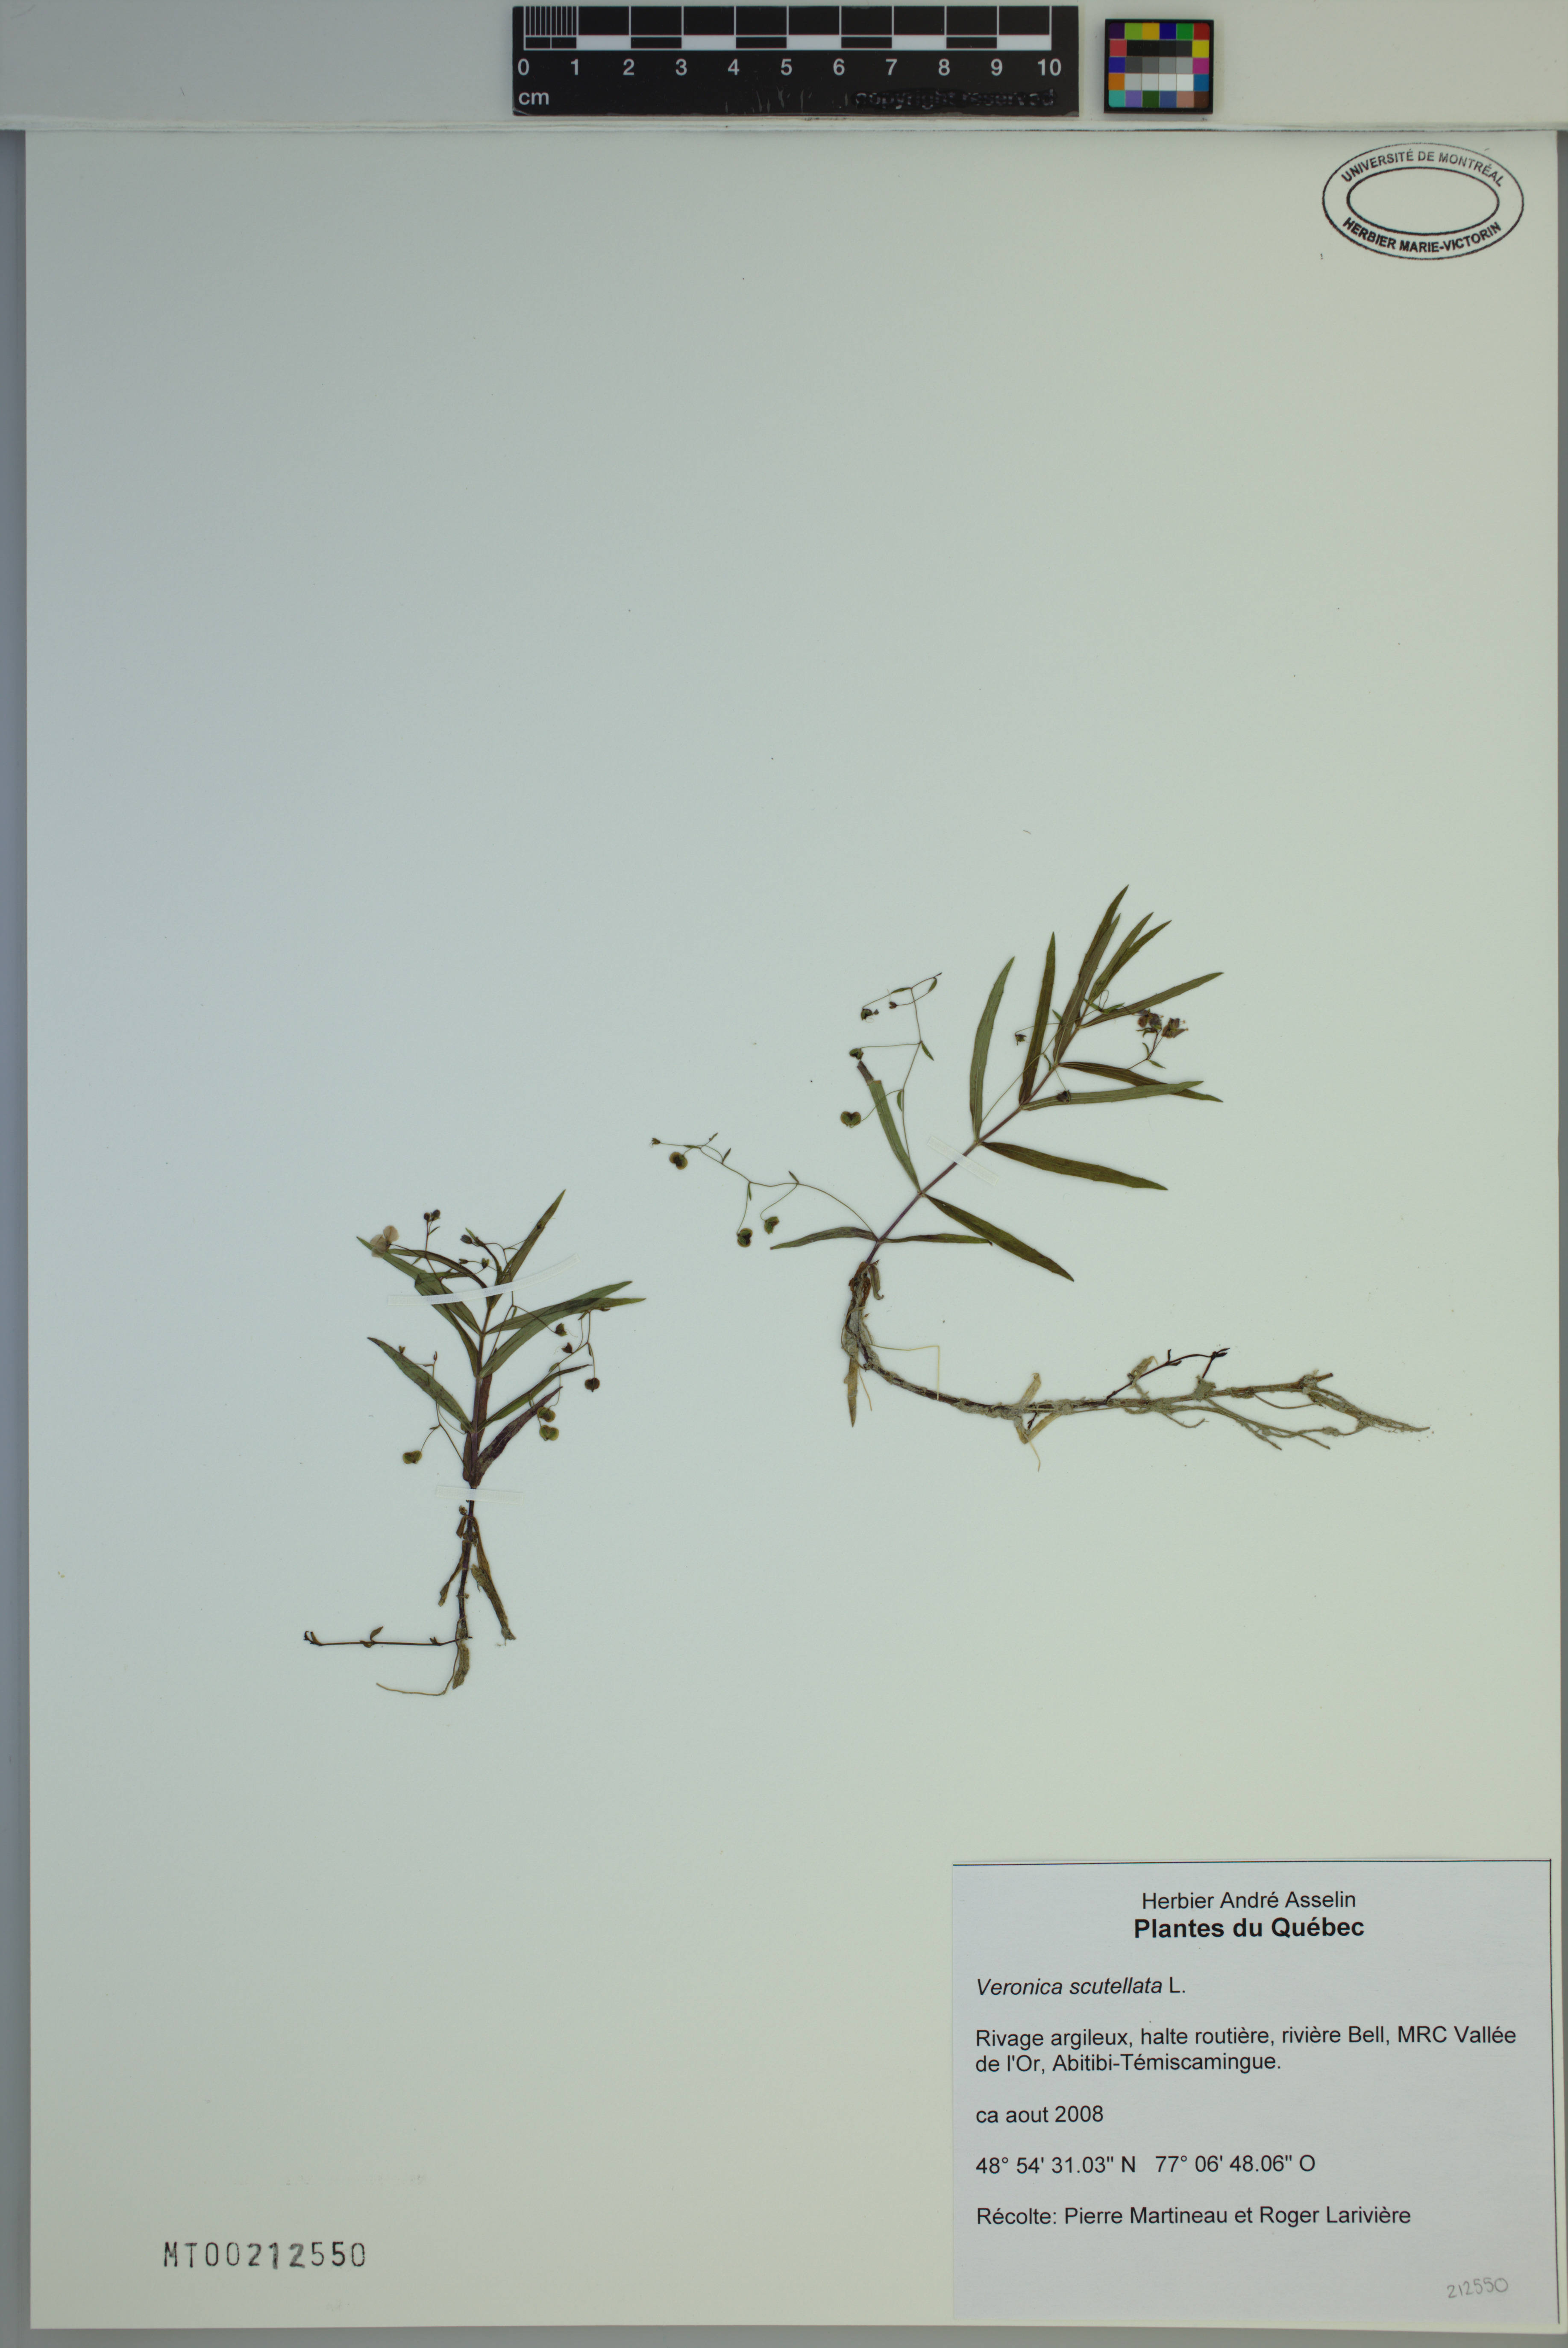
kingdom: Plantae
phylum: Tracheophyta
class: Magnoliopsida
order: Lamiales
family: Plantaginaceae
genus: Veronica
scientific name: Veronica scutellata
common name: Marsh speedwell
